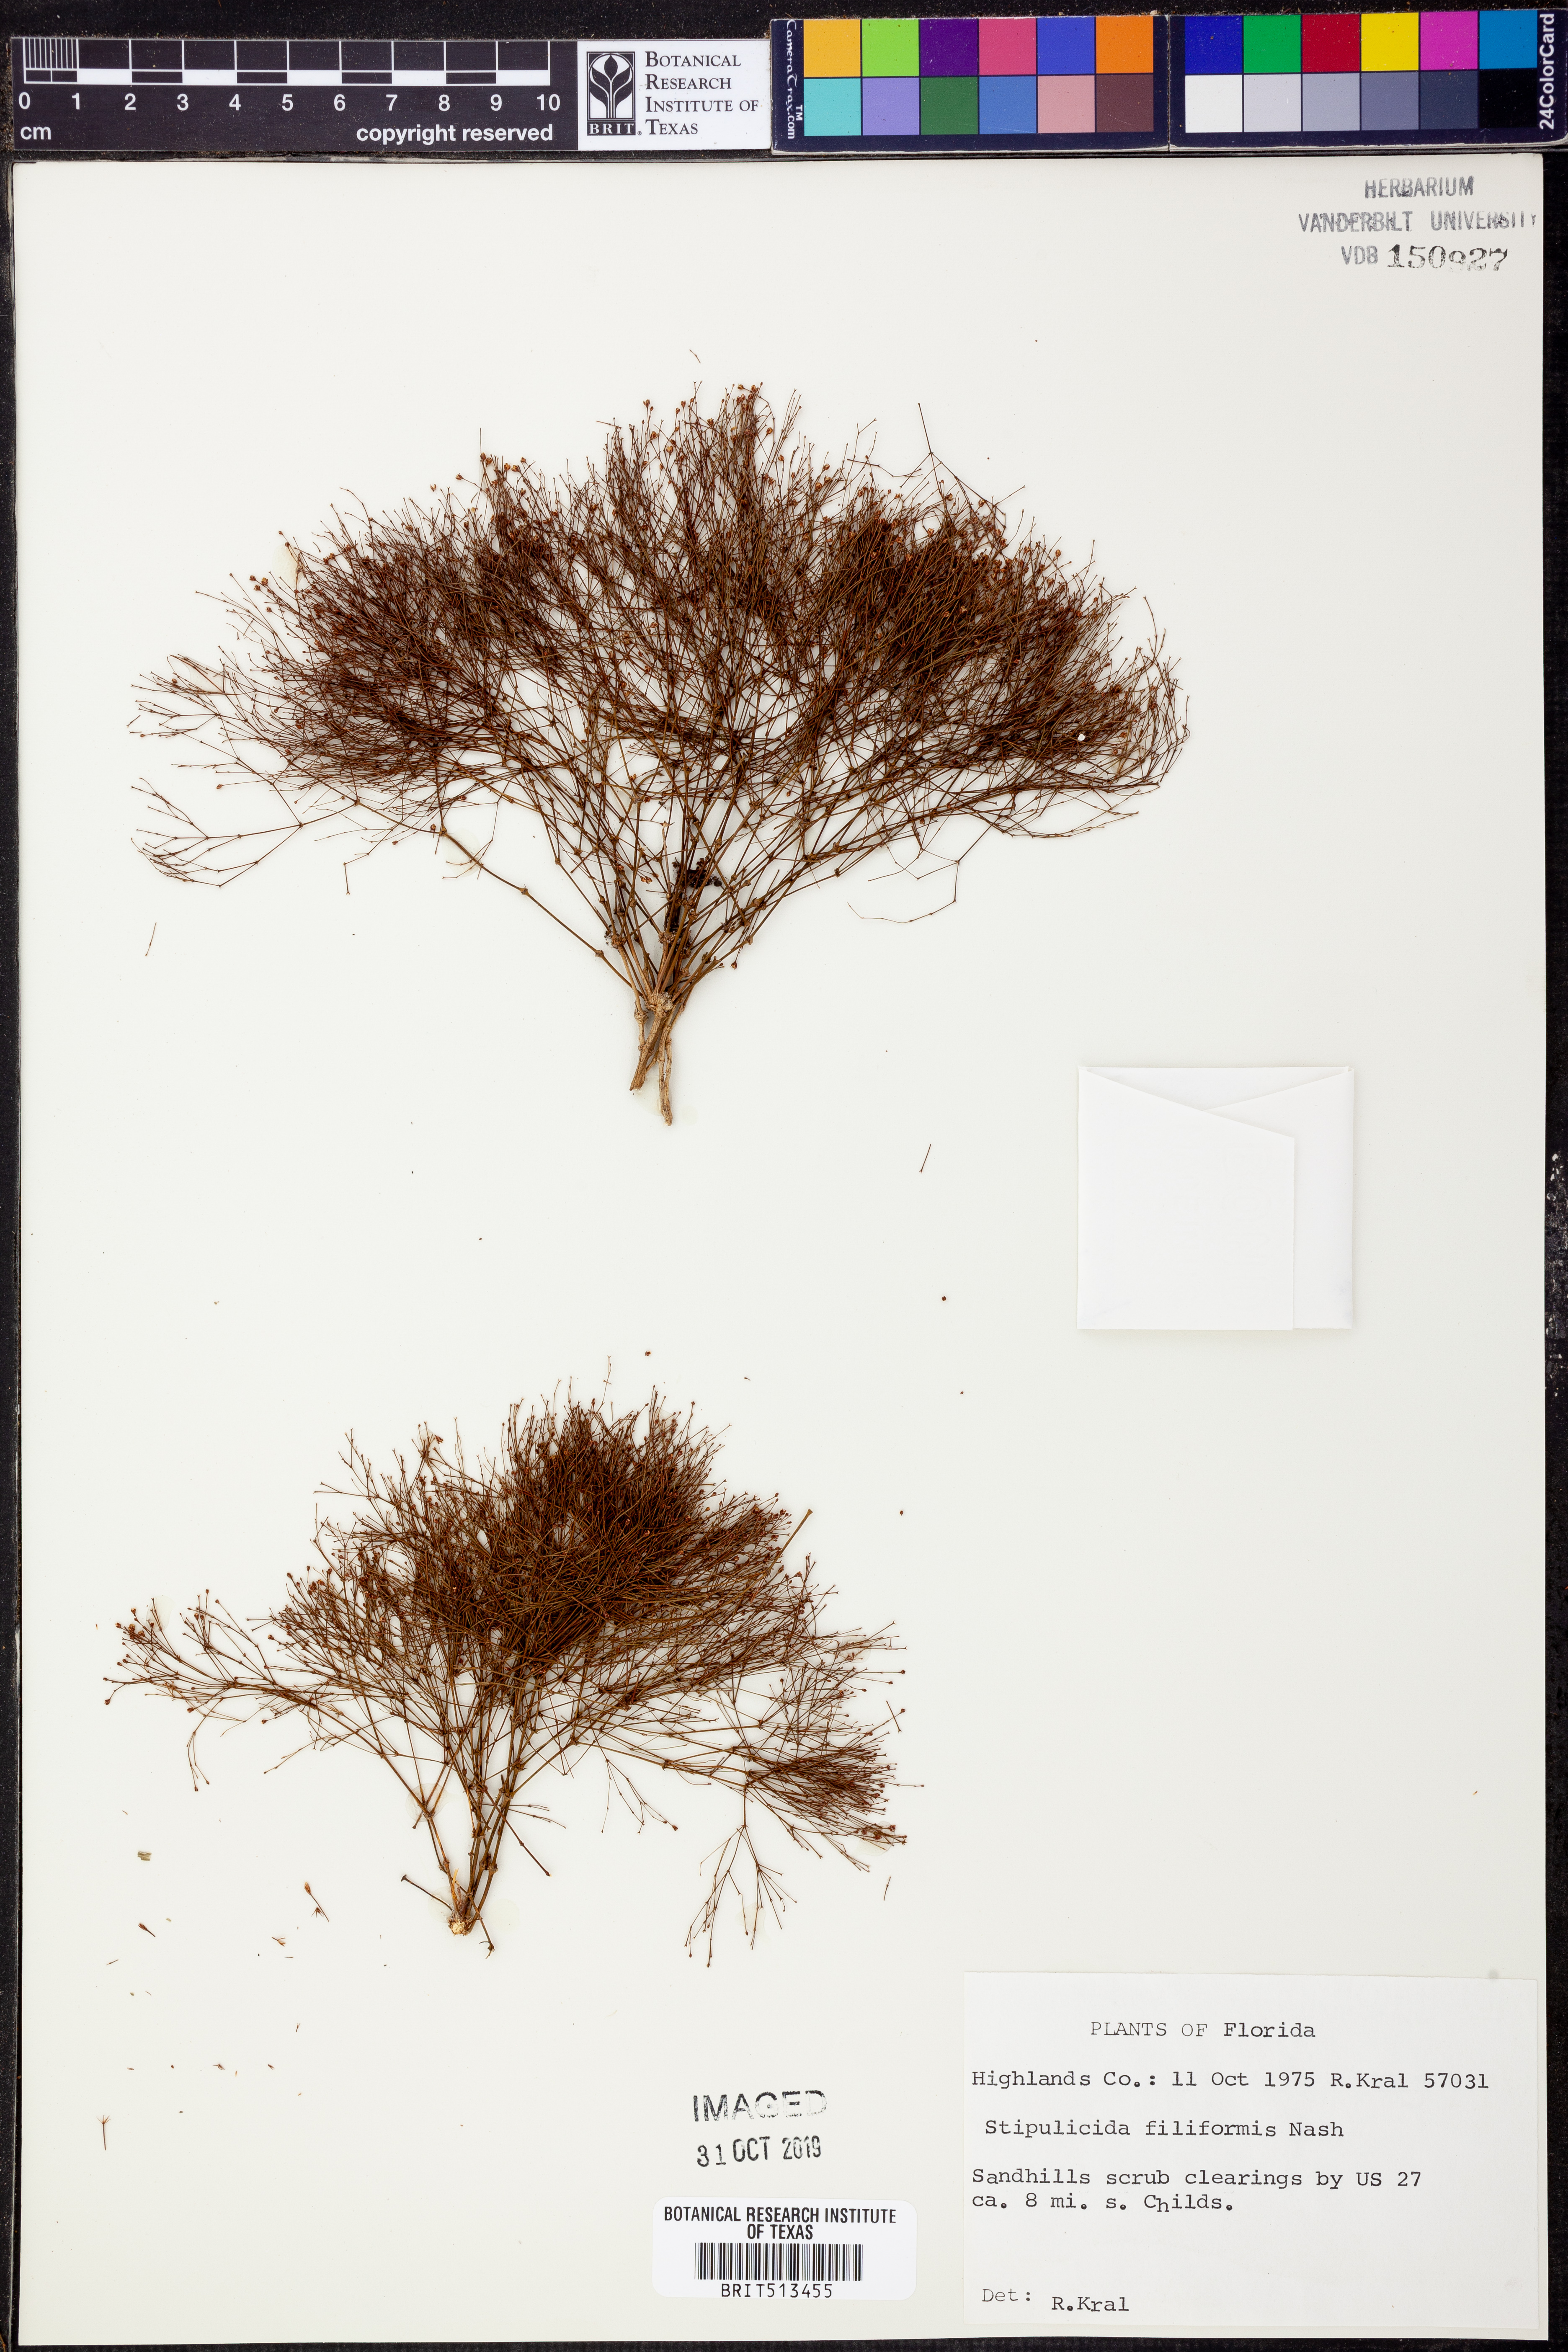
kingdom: Plantae
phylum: Tracheophyta
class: Magnoliopsida
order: Caryophyllales
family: Caryophyllaceae
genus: Stipulicida
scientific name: Stipulicida setacea
